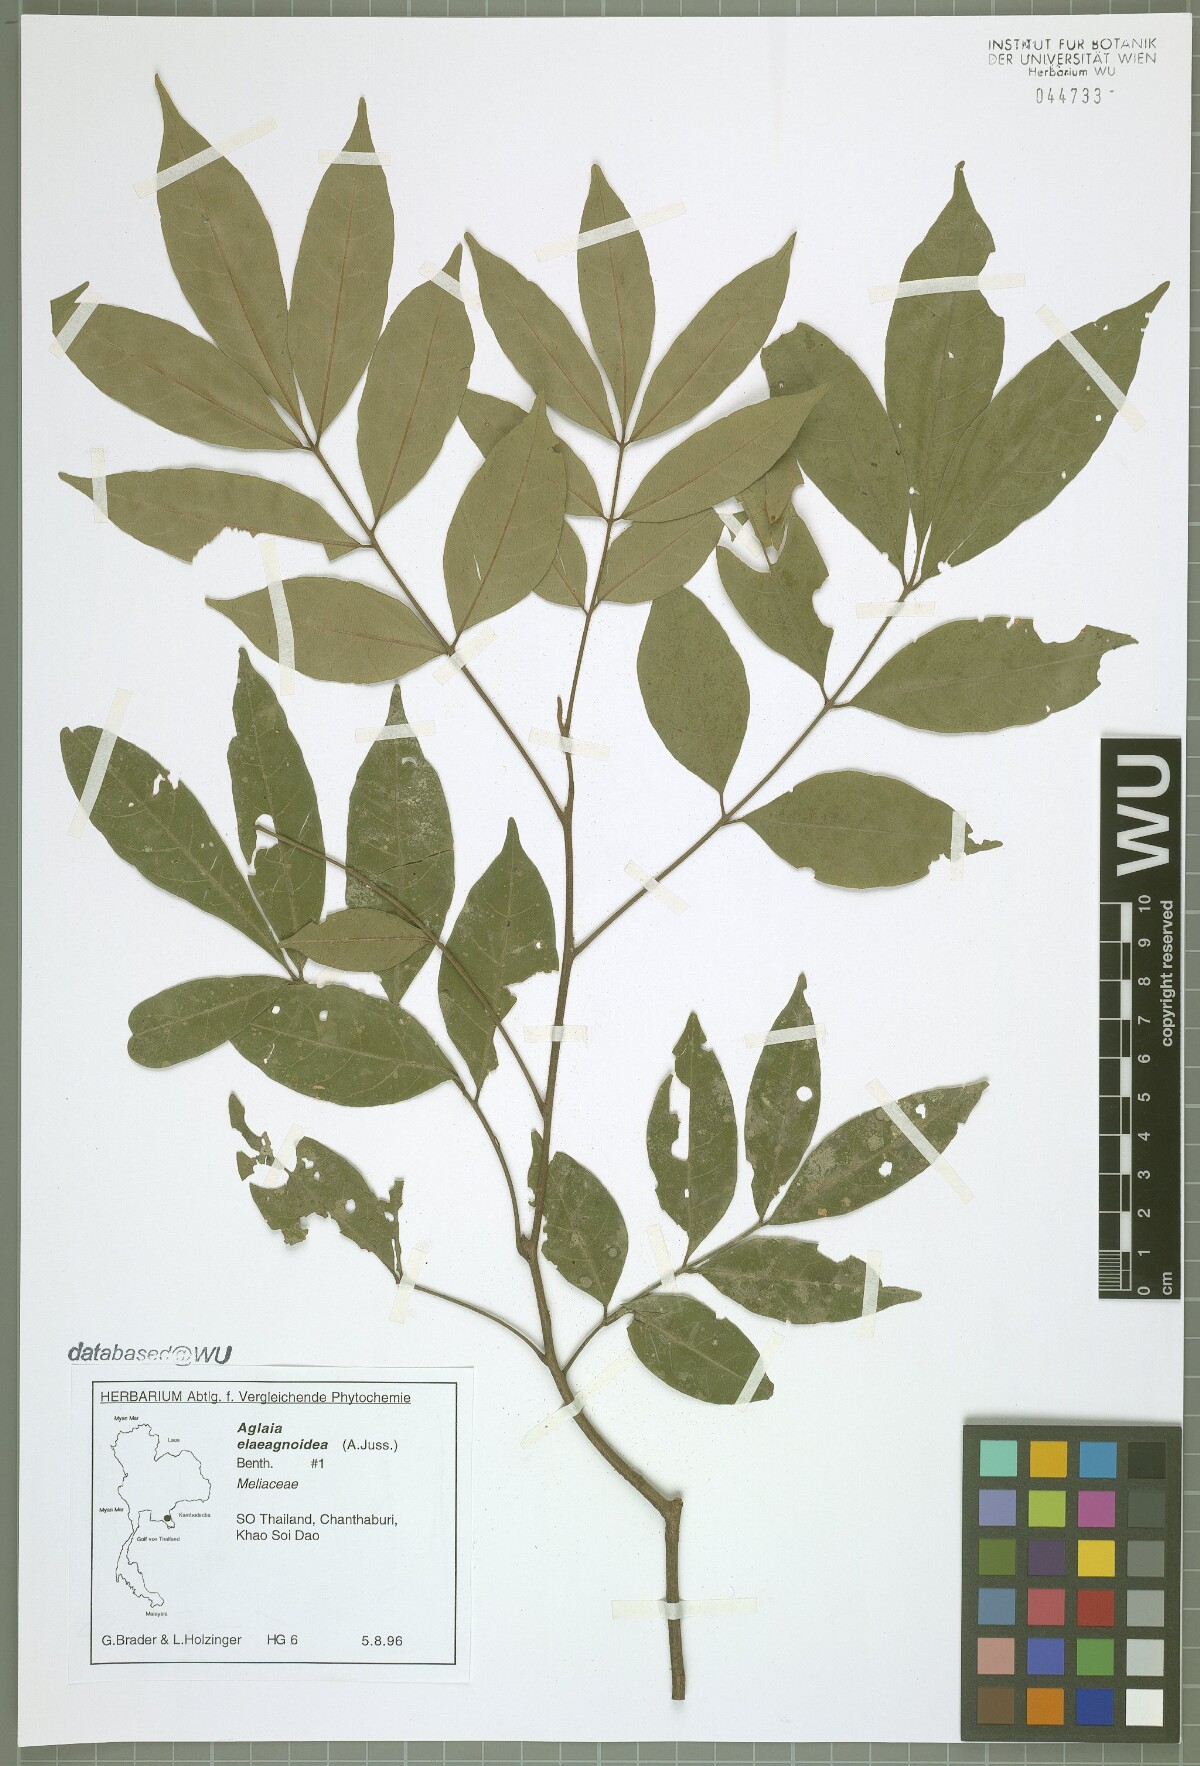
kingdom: Plantae
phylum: Tracheophyta
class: Magnoliopsida
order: Sapindales
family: Meliaceae
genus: Aglaia
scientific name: Aglaia elaeagnoidea
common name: Droopyleaf
